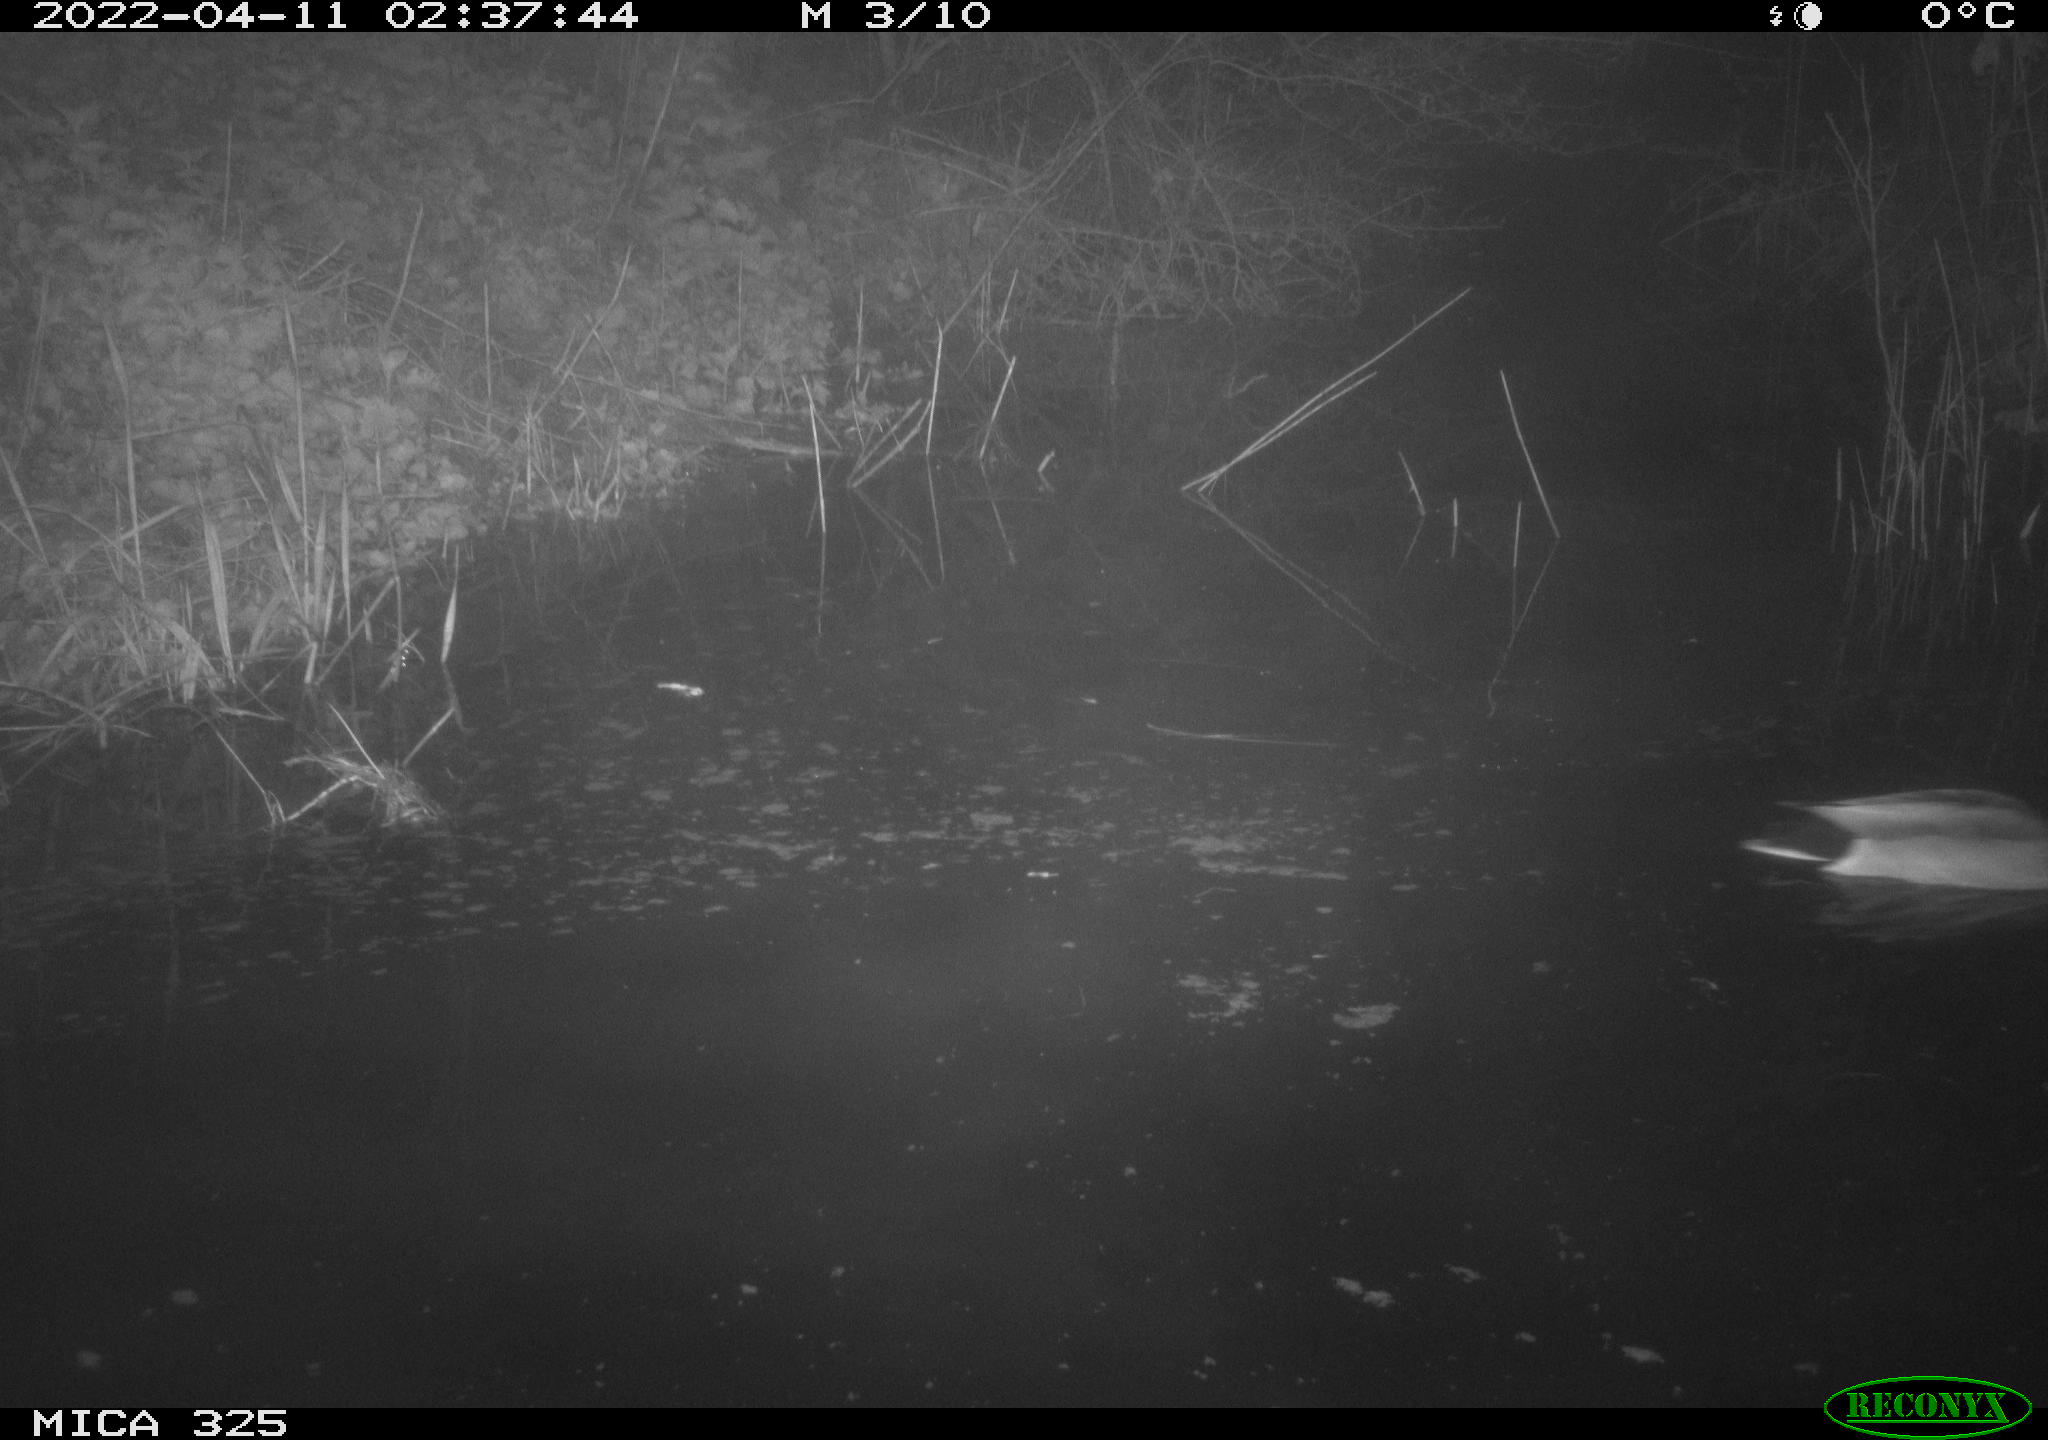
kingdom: Animalia
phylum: Chordata
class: Aves
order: Anseriformes
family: Anatidae
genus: Anas
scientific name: Anas platyrhynchos
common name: Mallard
